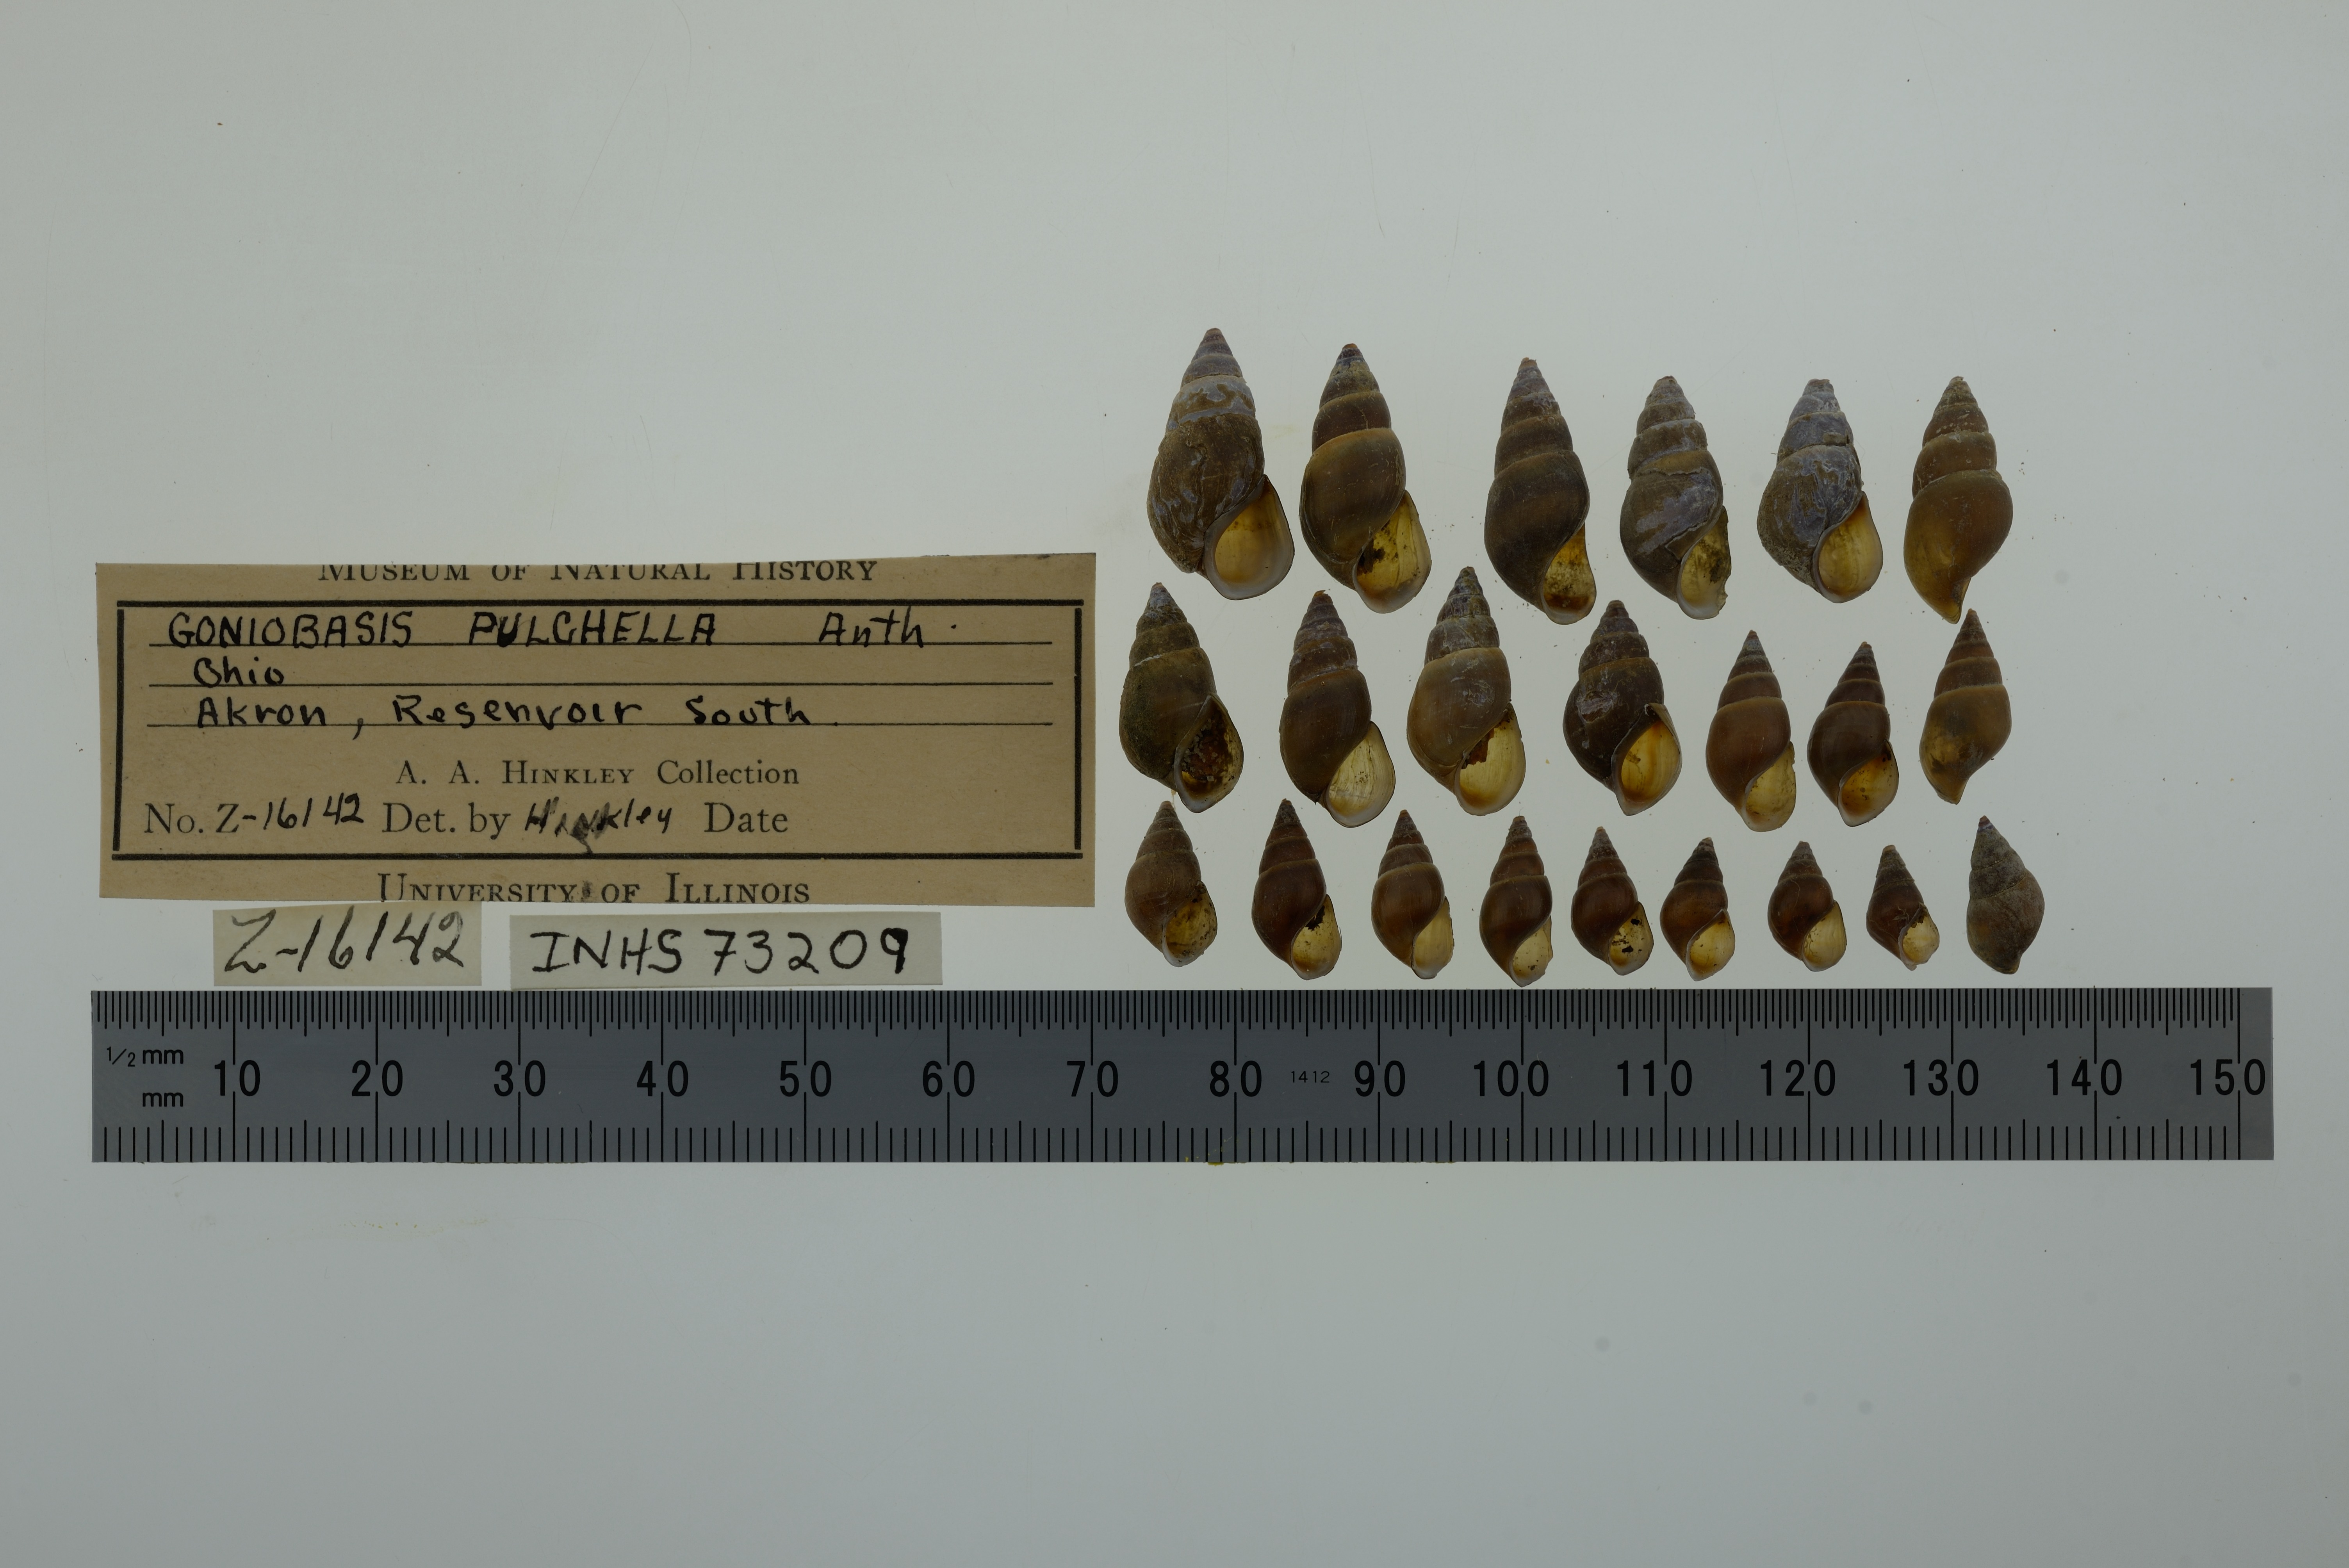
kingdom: Animalia
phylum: Mollusca
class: Gastropoda
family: Pleuroceridae
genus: Elimia
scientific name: Elimia semicarinata
